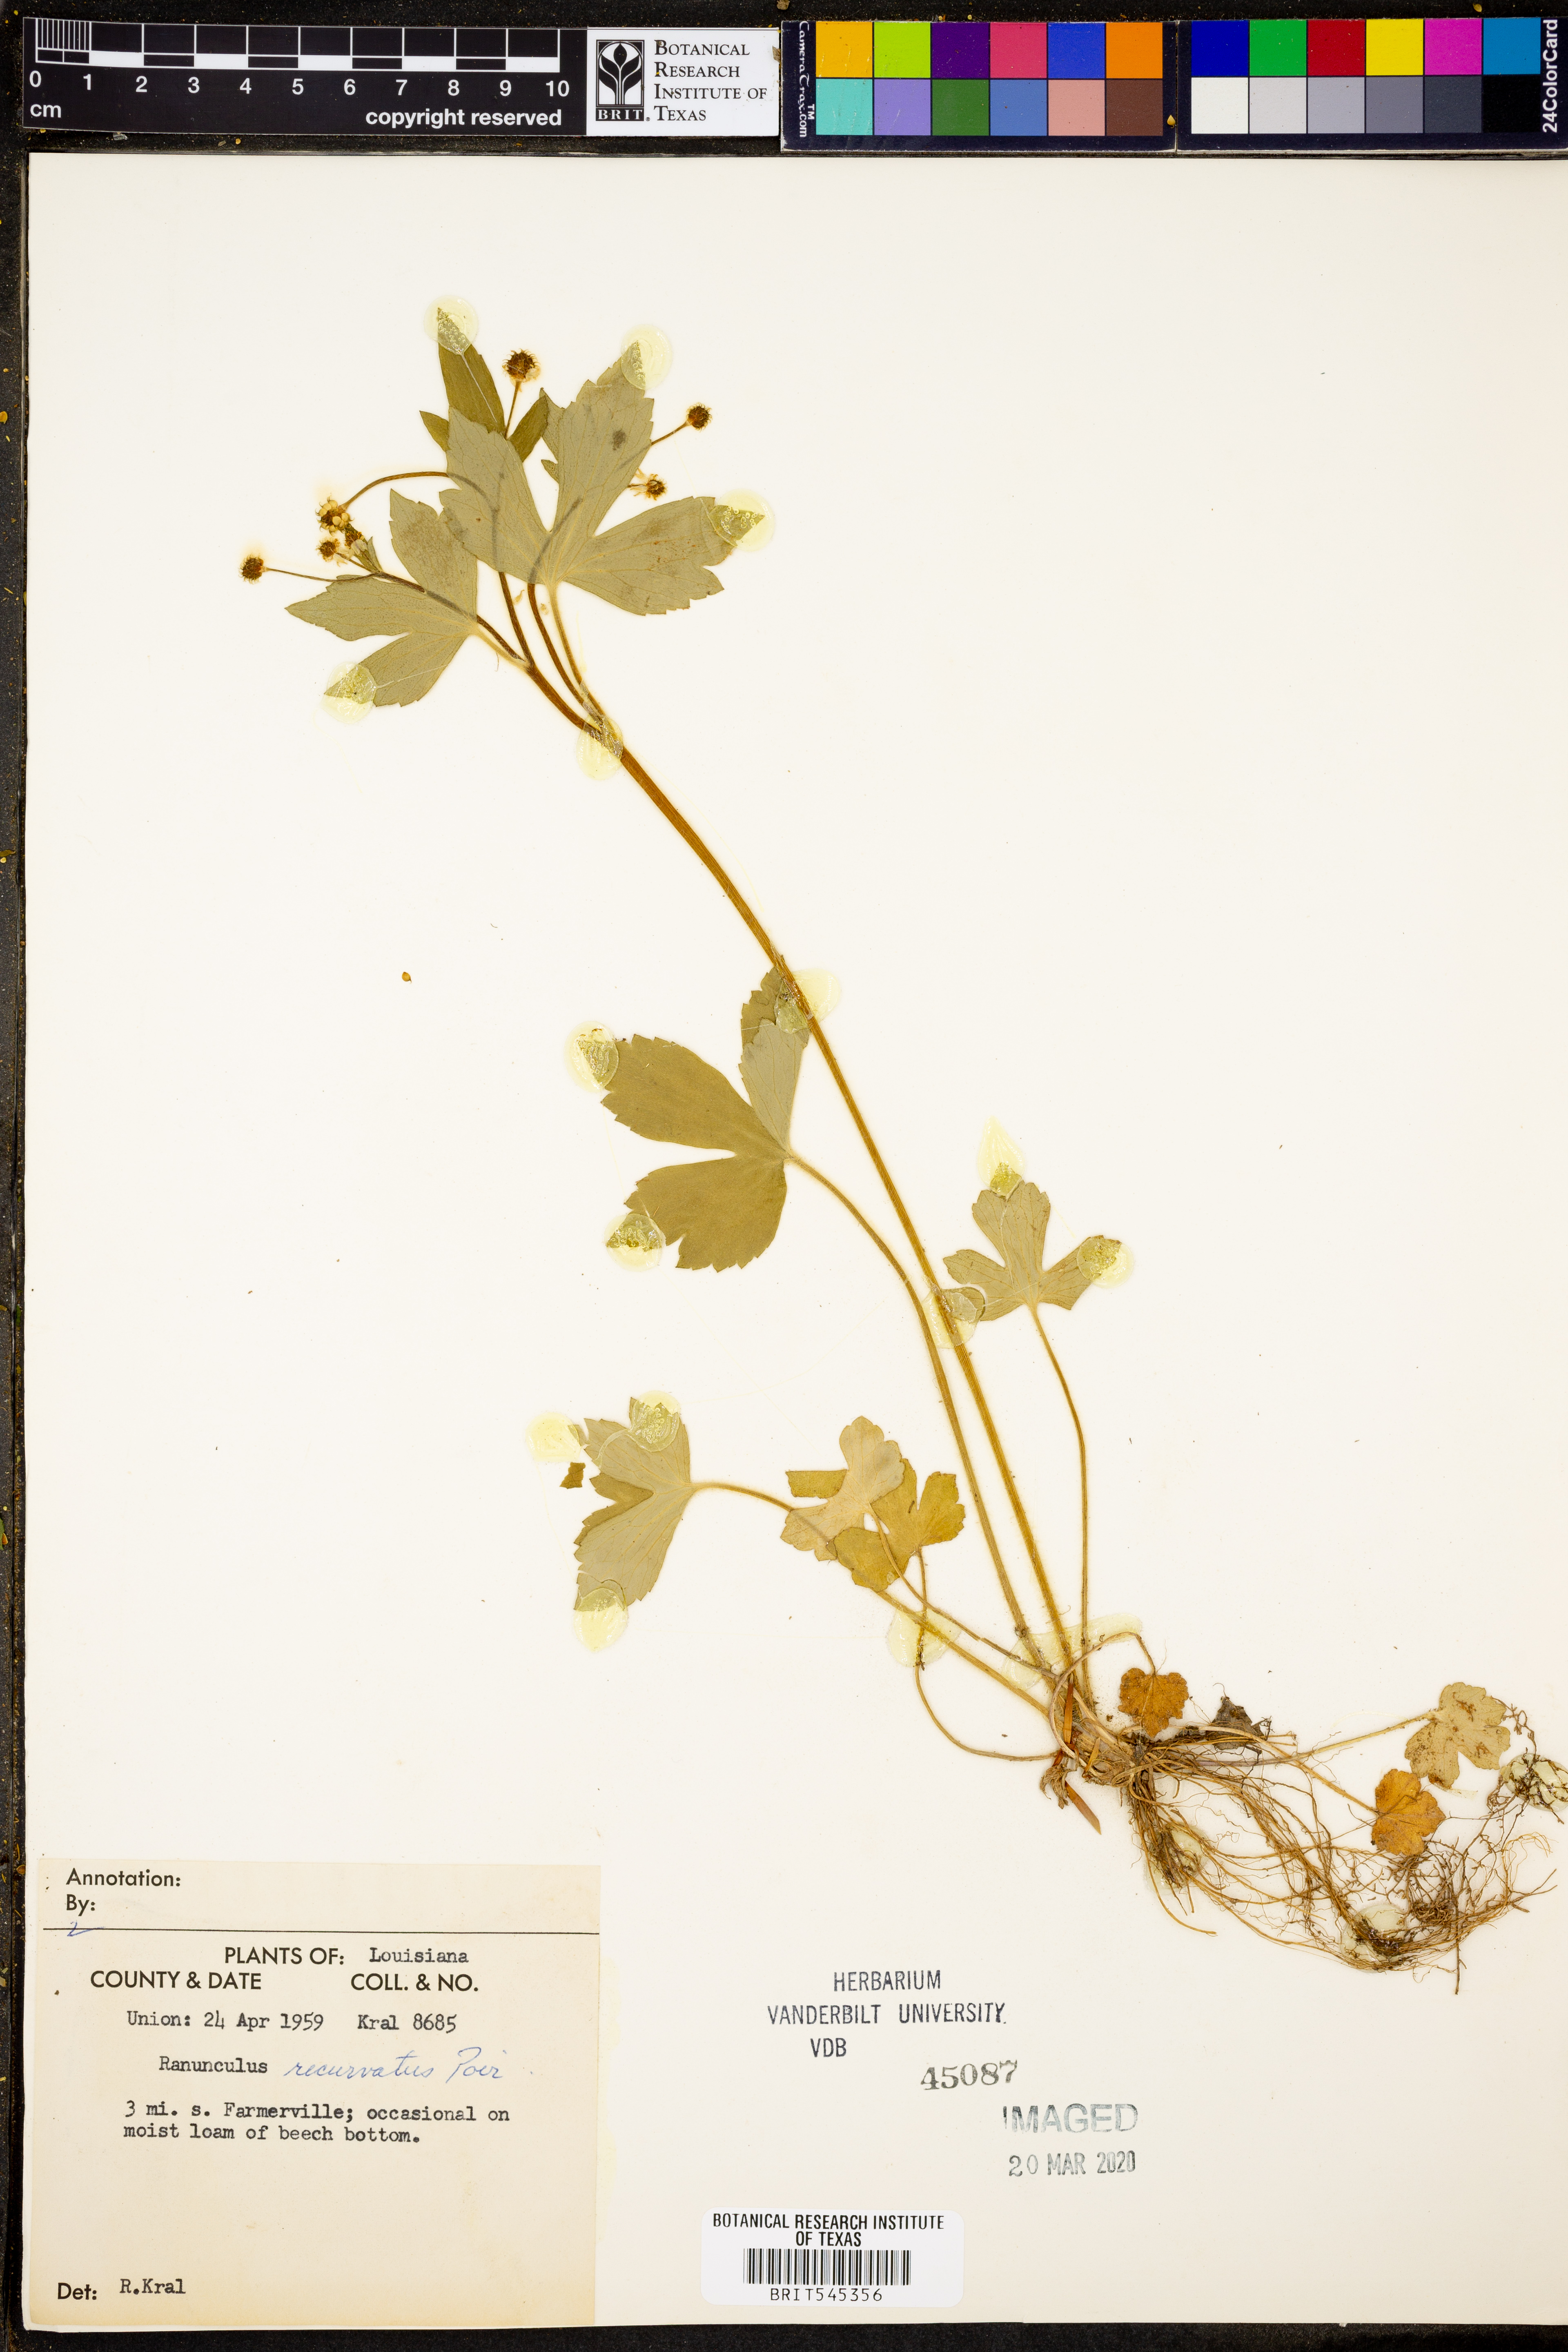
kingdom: Plantae
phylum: Tracheophyta
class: Magnoliopsida
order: Ranunculales
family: Ranunculaceae
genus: Ranunculus
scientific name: Ranunculus recurvatus
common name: Blisterwort
